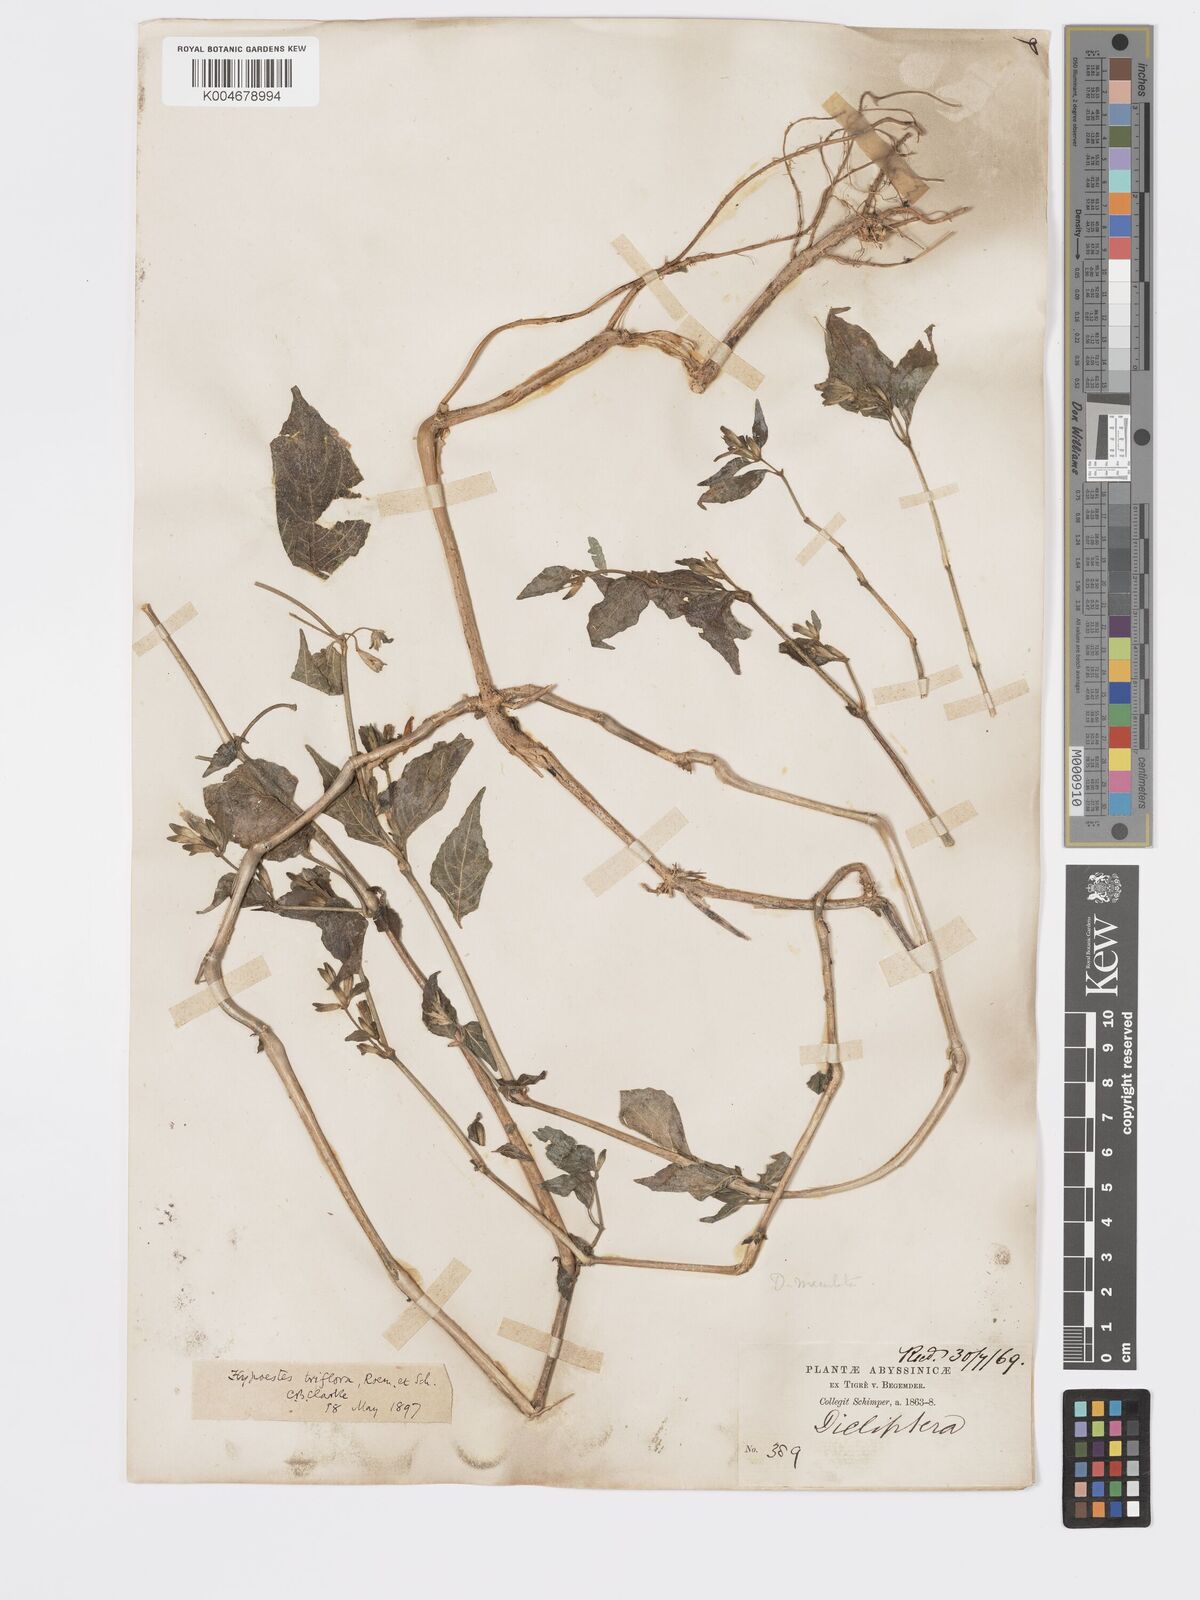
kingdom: Plantae
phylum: Tracheophyta
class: Magnoliopsida
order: Lamiales
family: Acanthaceae
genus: Hypoestes
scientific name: Hypoestes triflora
